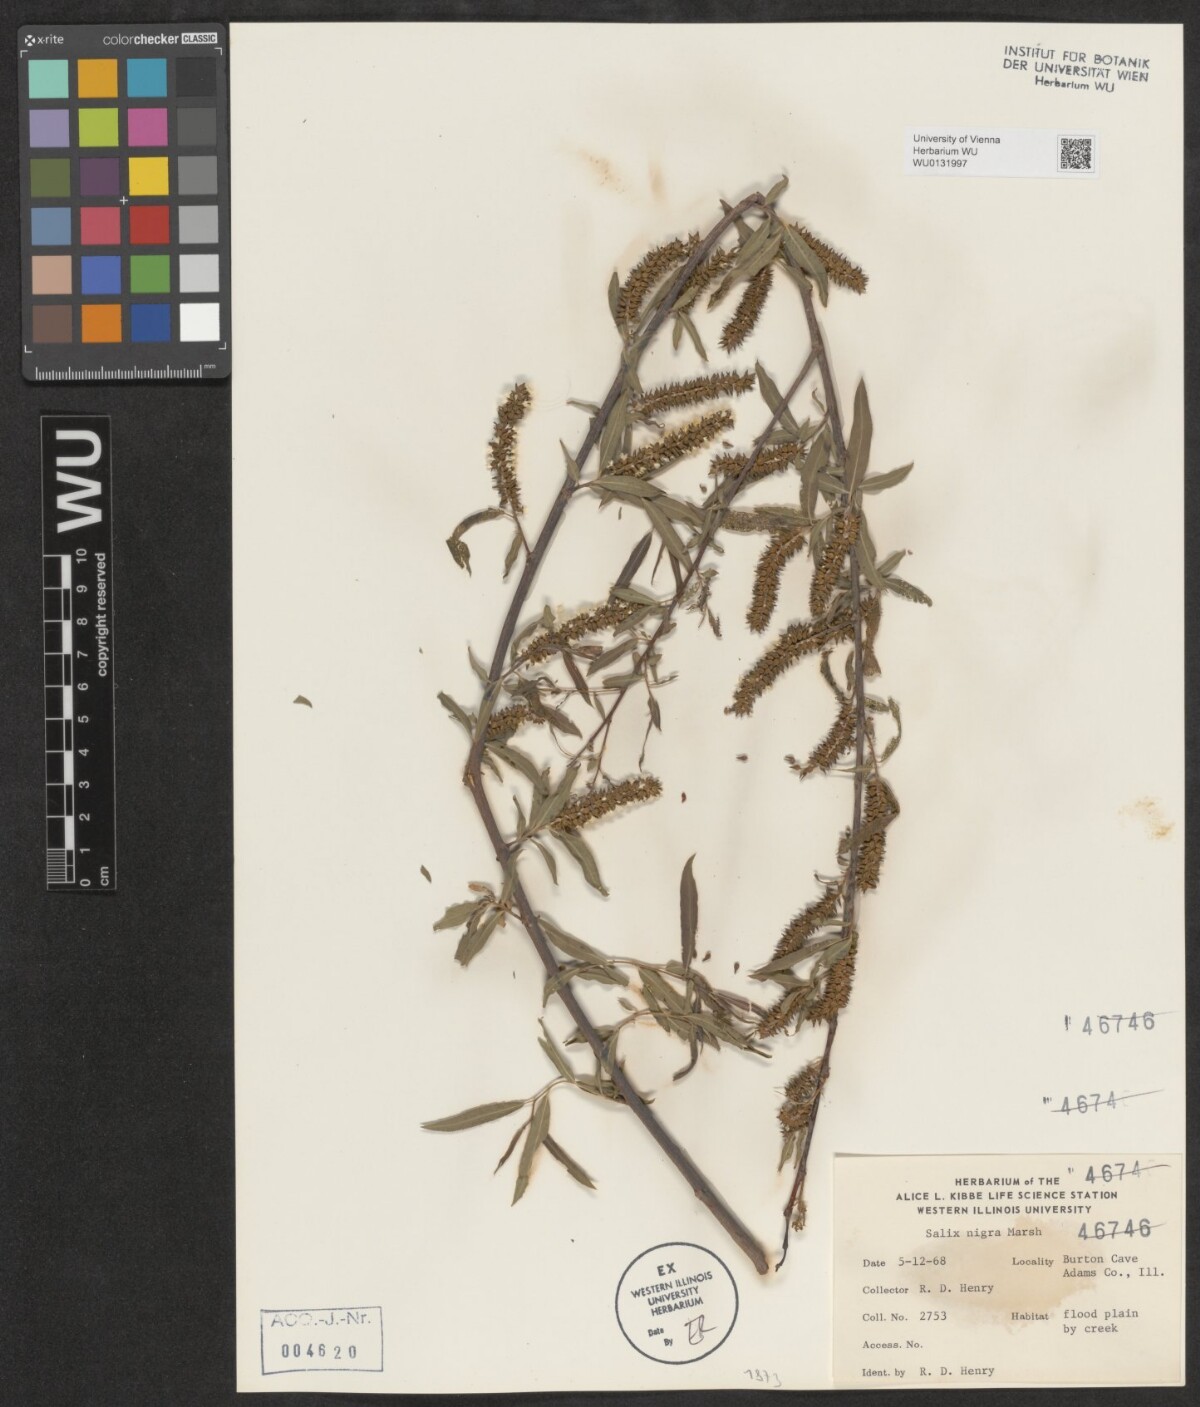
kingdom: Plantae
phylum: Tracheophyta
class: Magnoliopsida
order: Malpighiales
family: Salicaceae
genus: Salix
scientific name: Salix nigra
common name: Black willow
